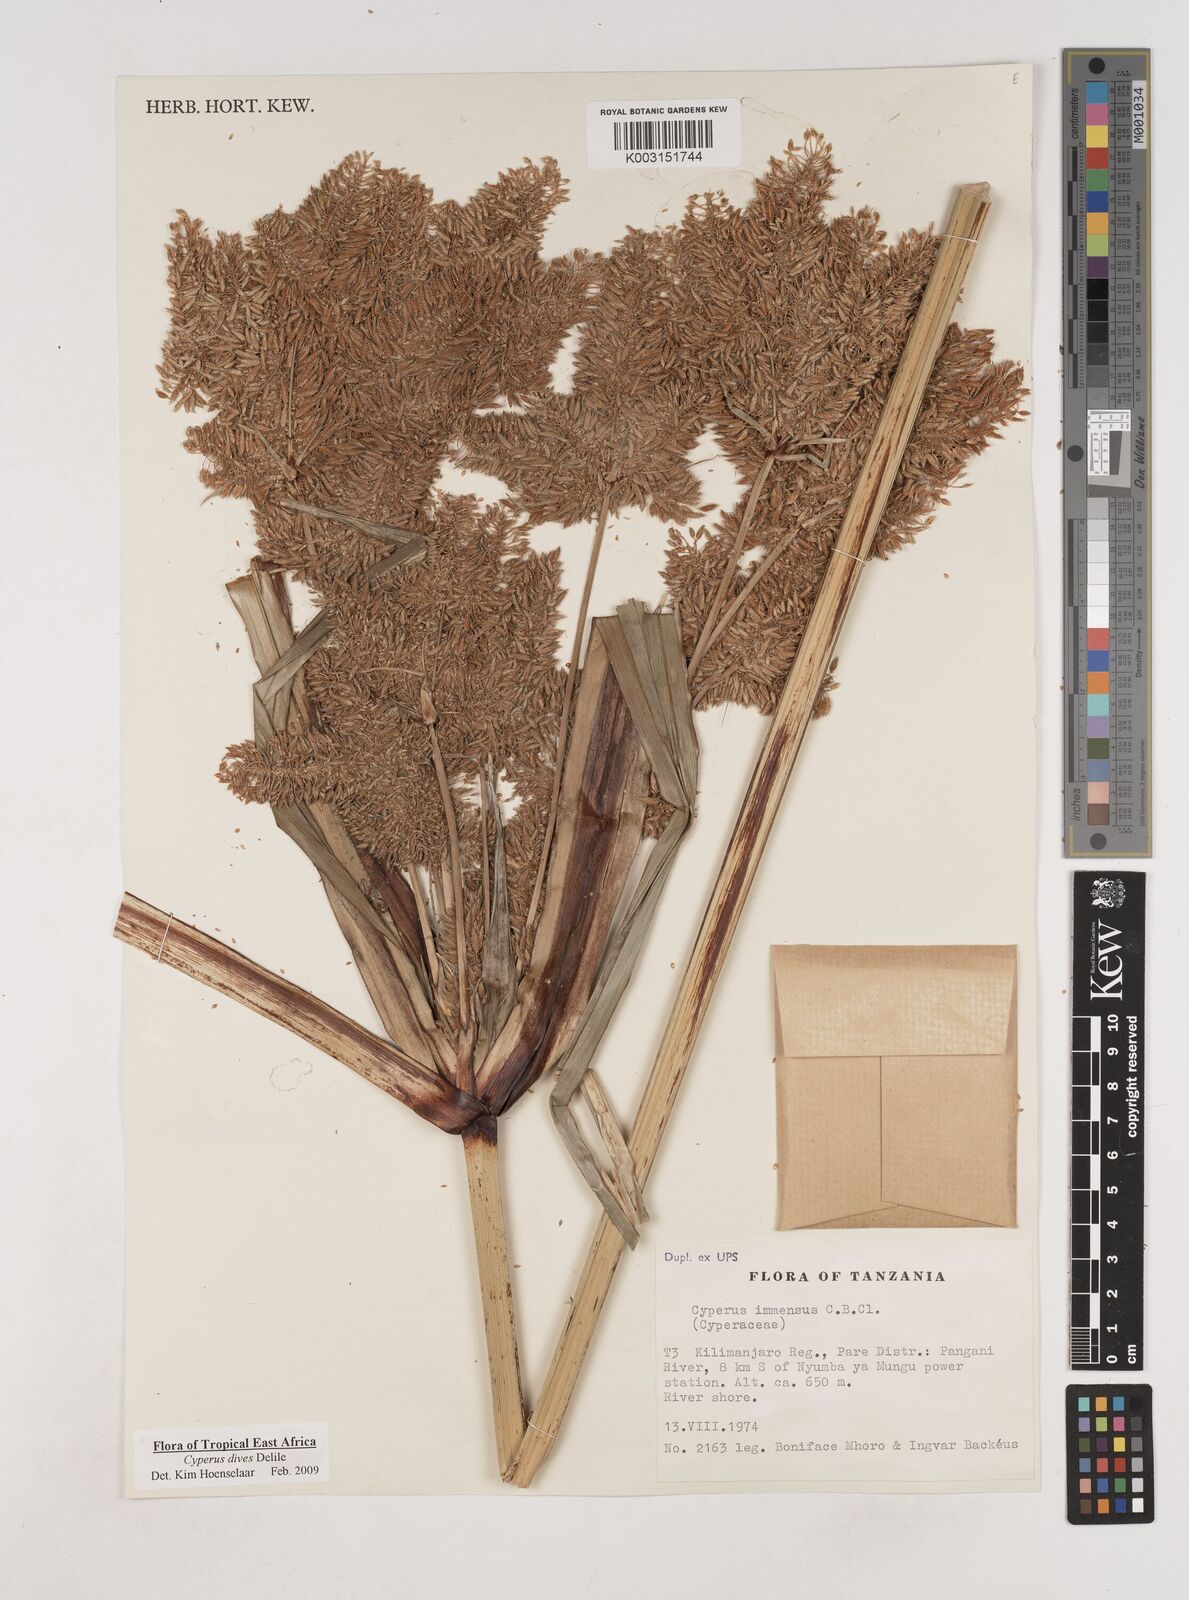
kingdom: Plantae
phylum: Tracheophyta
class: Liliopsida
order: Poales
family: Cyperaceae
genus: Cyperus
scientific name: Cyperus dives
